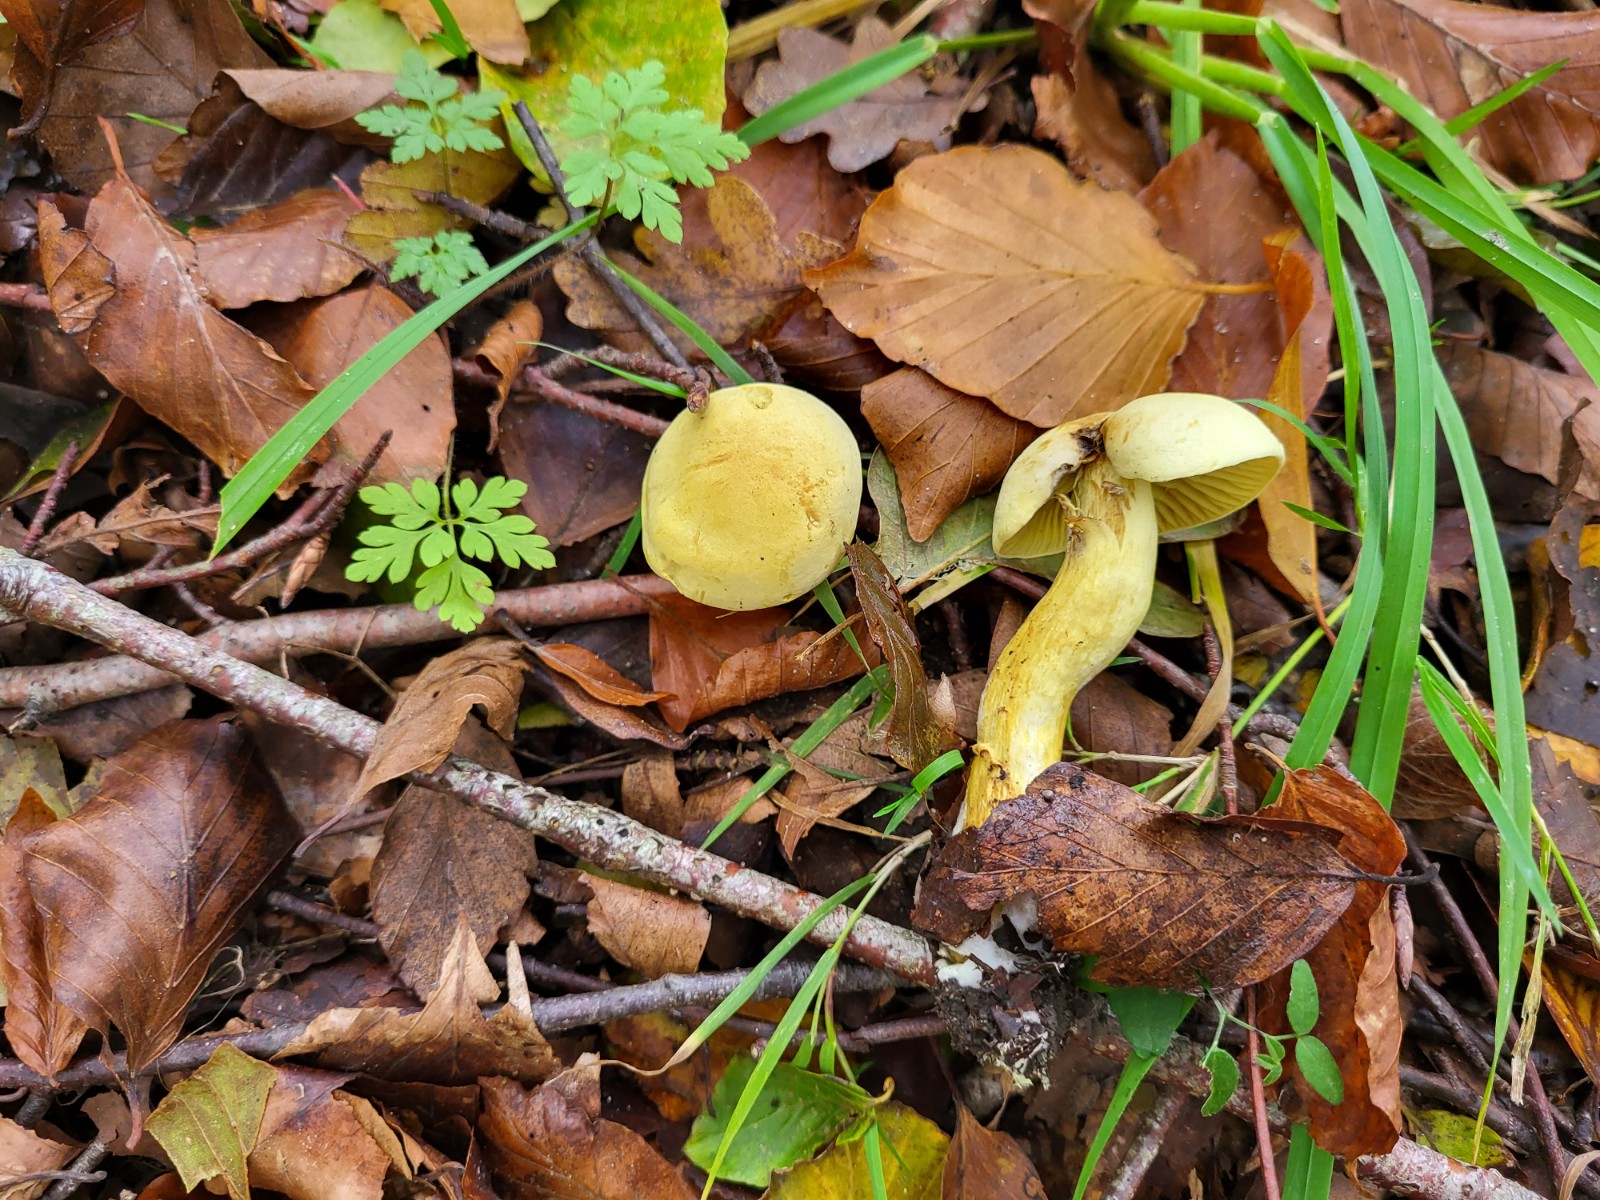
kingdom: Fungi
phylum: Basidiomycota
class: Agaricomycetes
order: Agaricales
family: Tricholomataceae
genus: Tricholoma
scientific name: Tricholoma sulphureum
